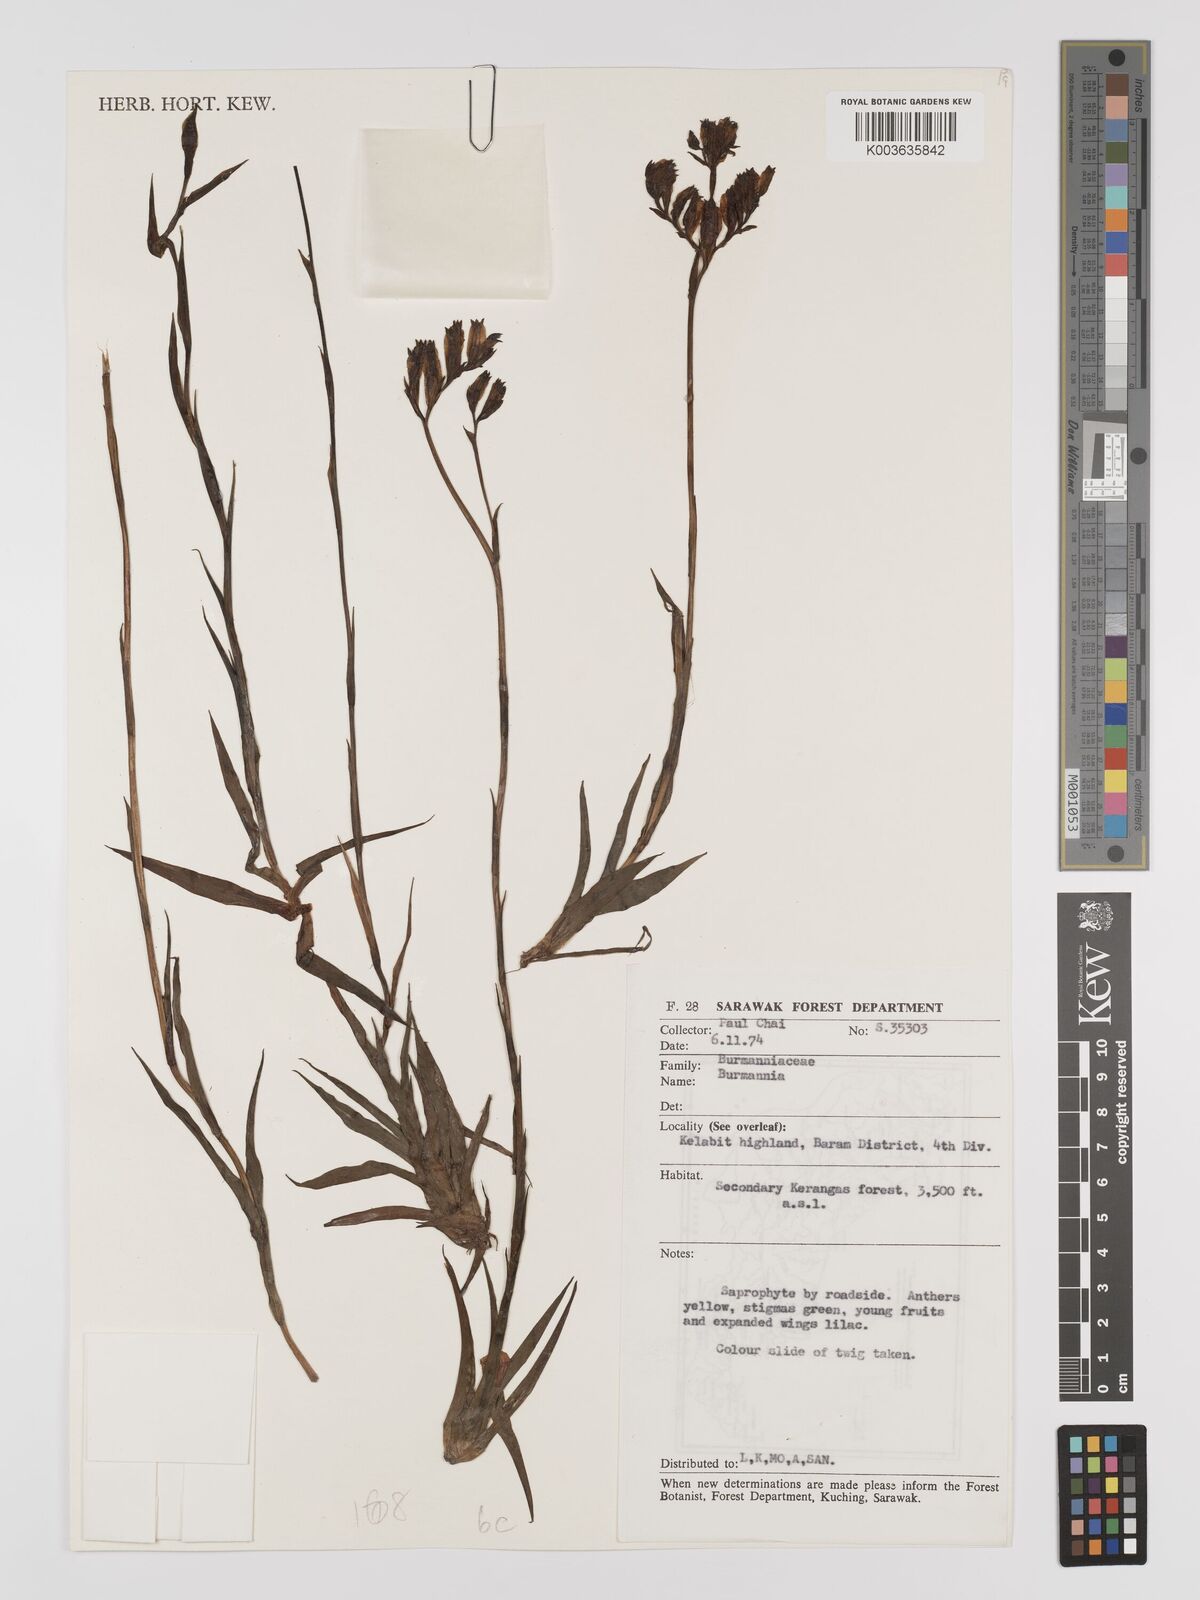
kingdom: Plantae
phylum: Tracheophyta
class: Liliopsida
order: Dioscoreales
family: Burmanniaceae
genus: Burmannia
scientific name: Burmannia disticha
